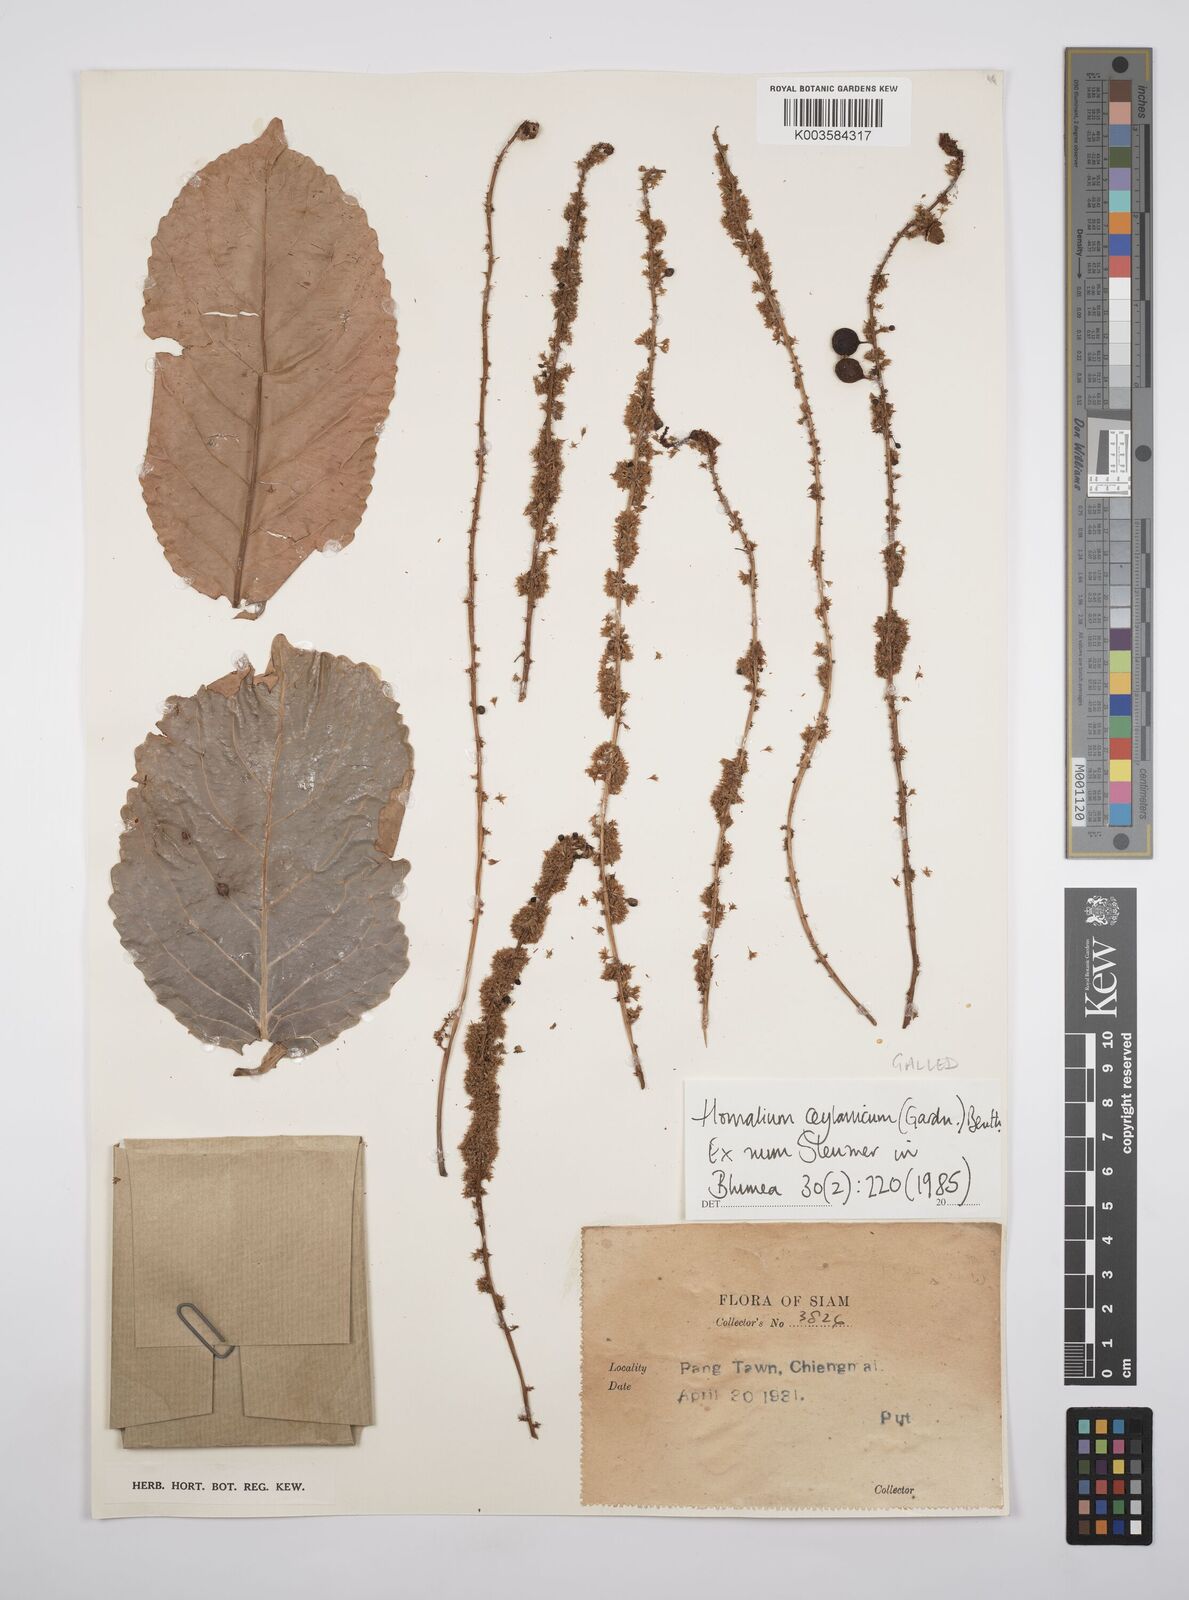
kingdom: Plantae
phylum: Tracheophyta
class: Magnoliopsida
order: Malpighiales
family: Salicaceae
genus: Homalium
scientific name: Homalium ceylanicum
